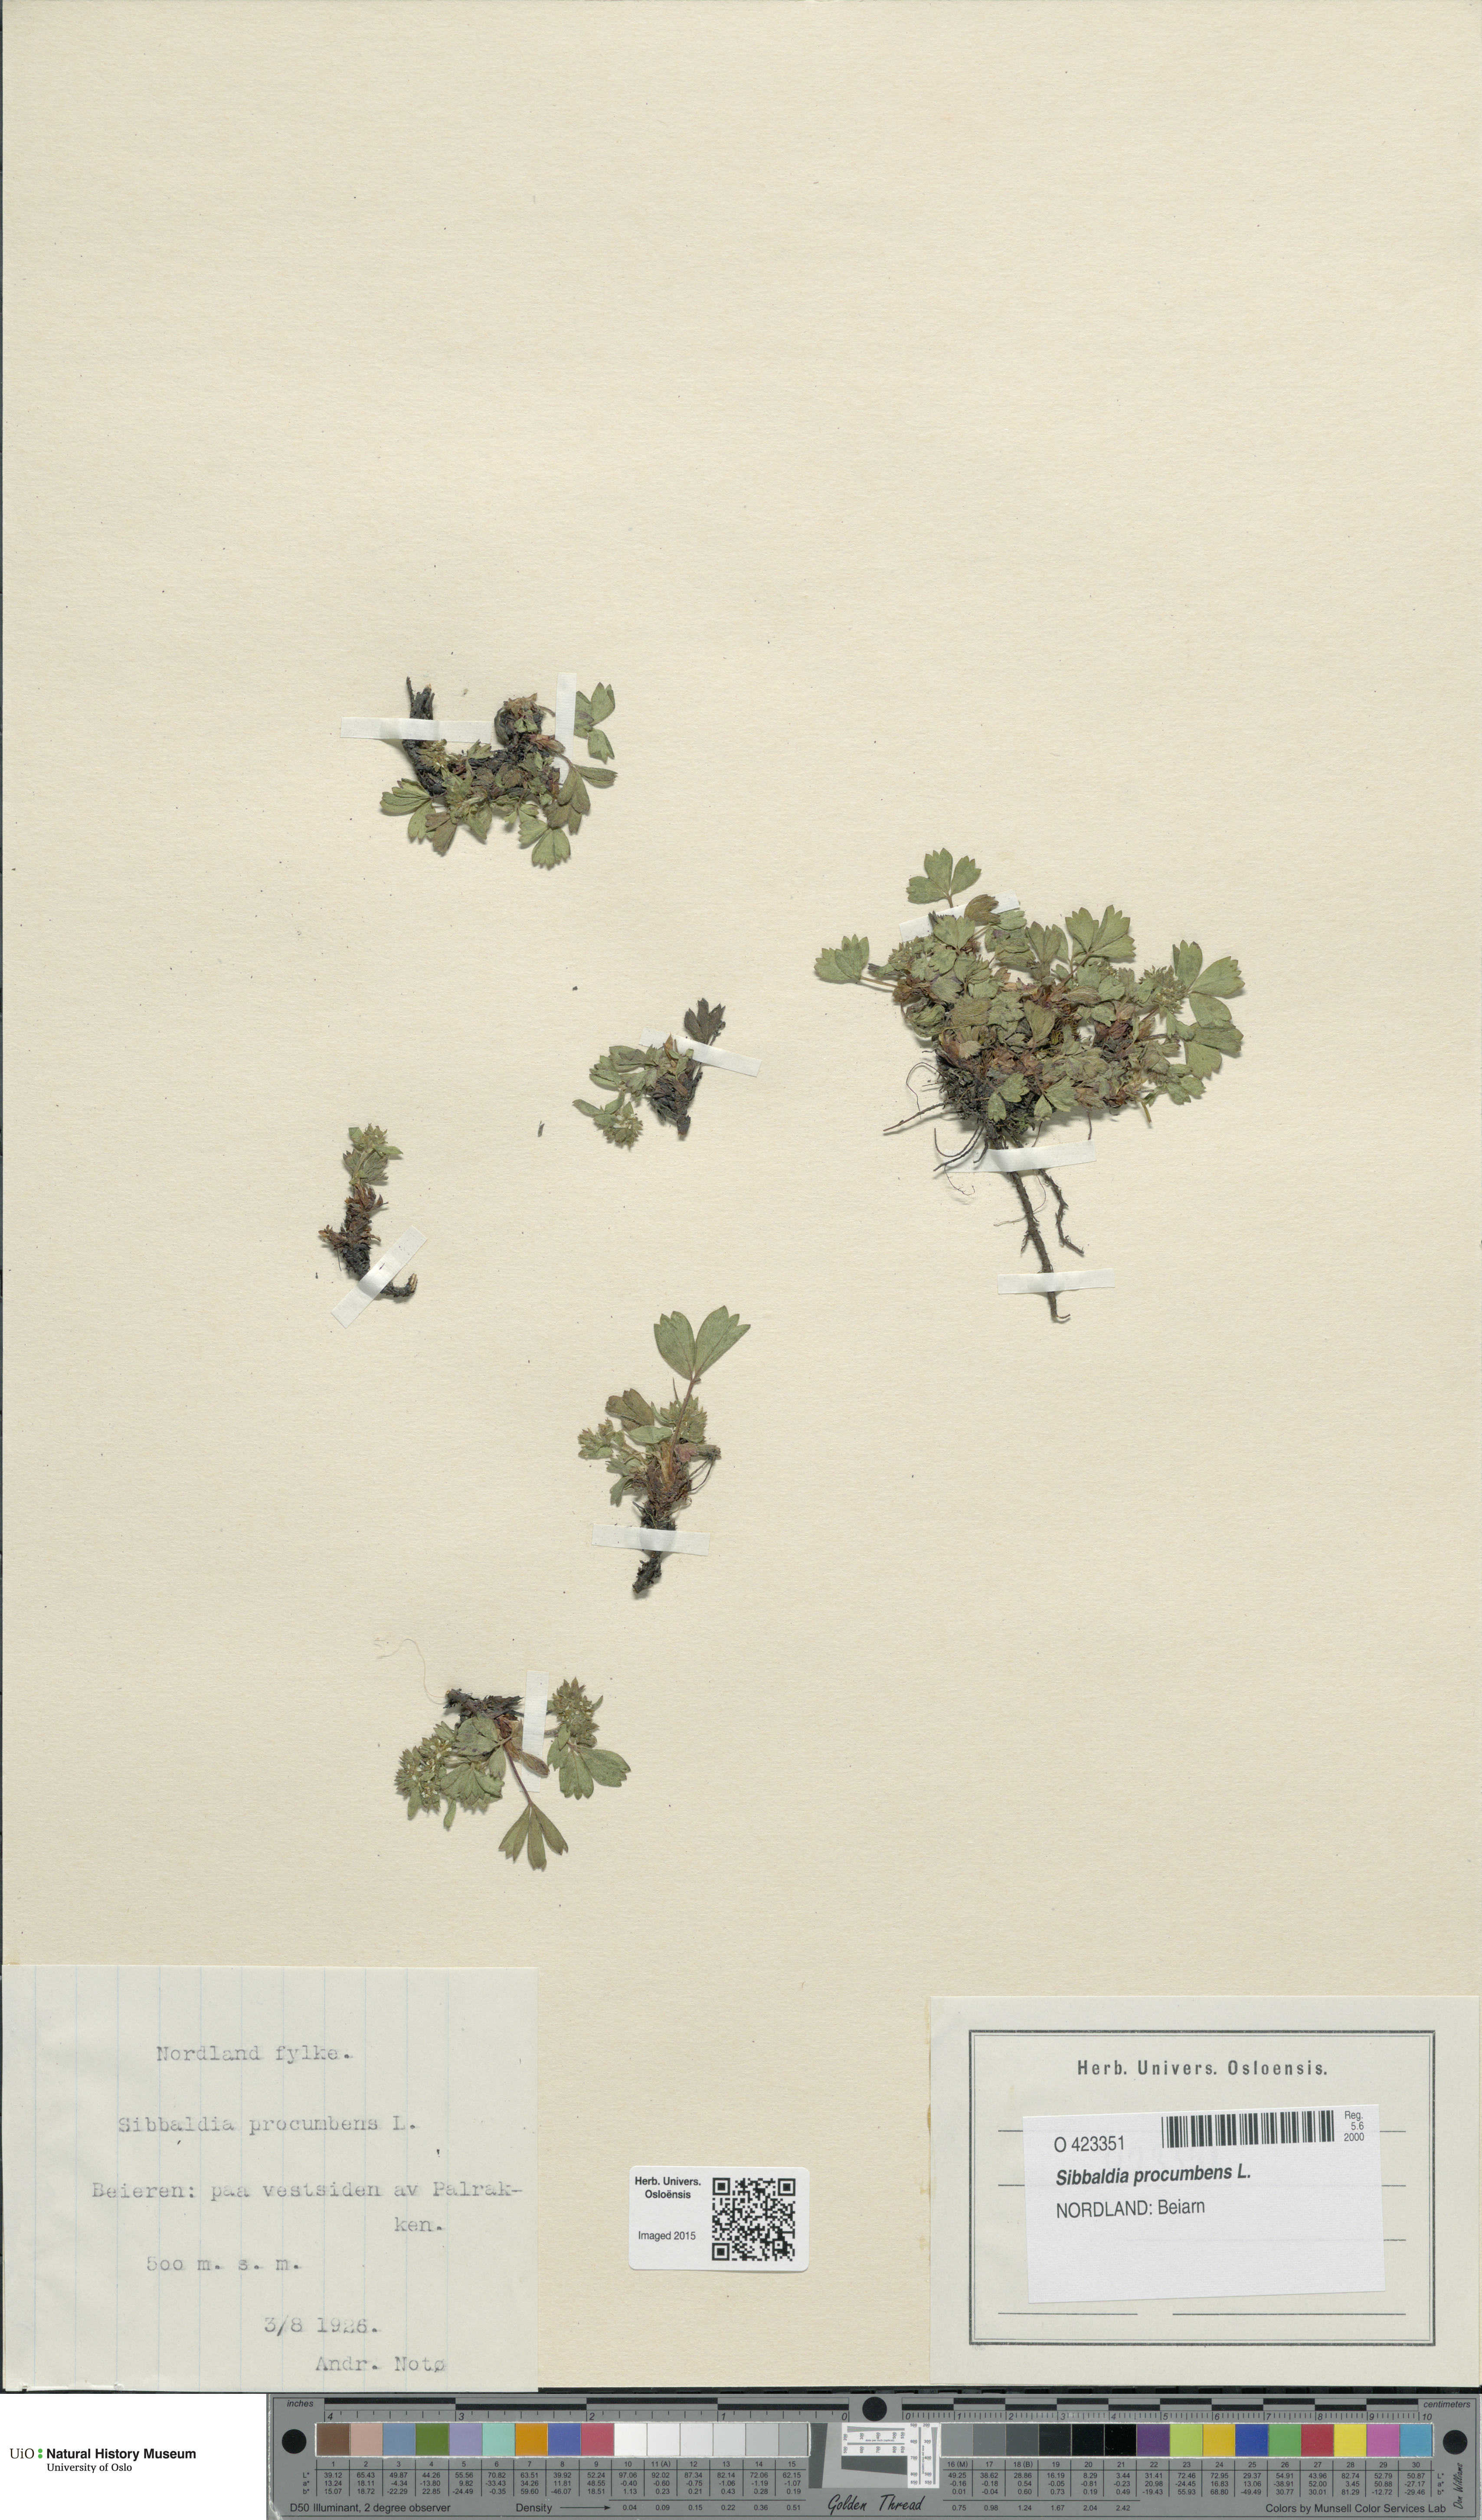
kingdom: Plantae
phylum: Tracheophyta
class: Magnoliopsida
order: Rosales
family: Rosaceae
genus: Sibbaldia
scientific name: Sibbaldia procumbens
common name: Creeping sibbaldia
